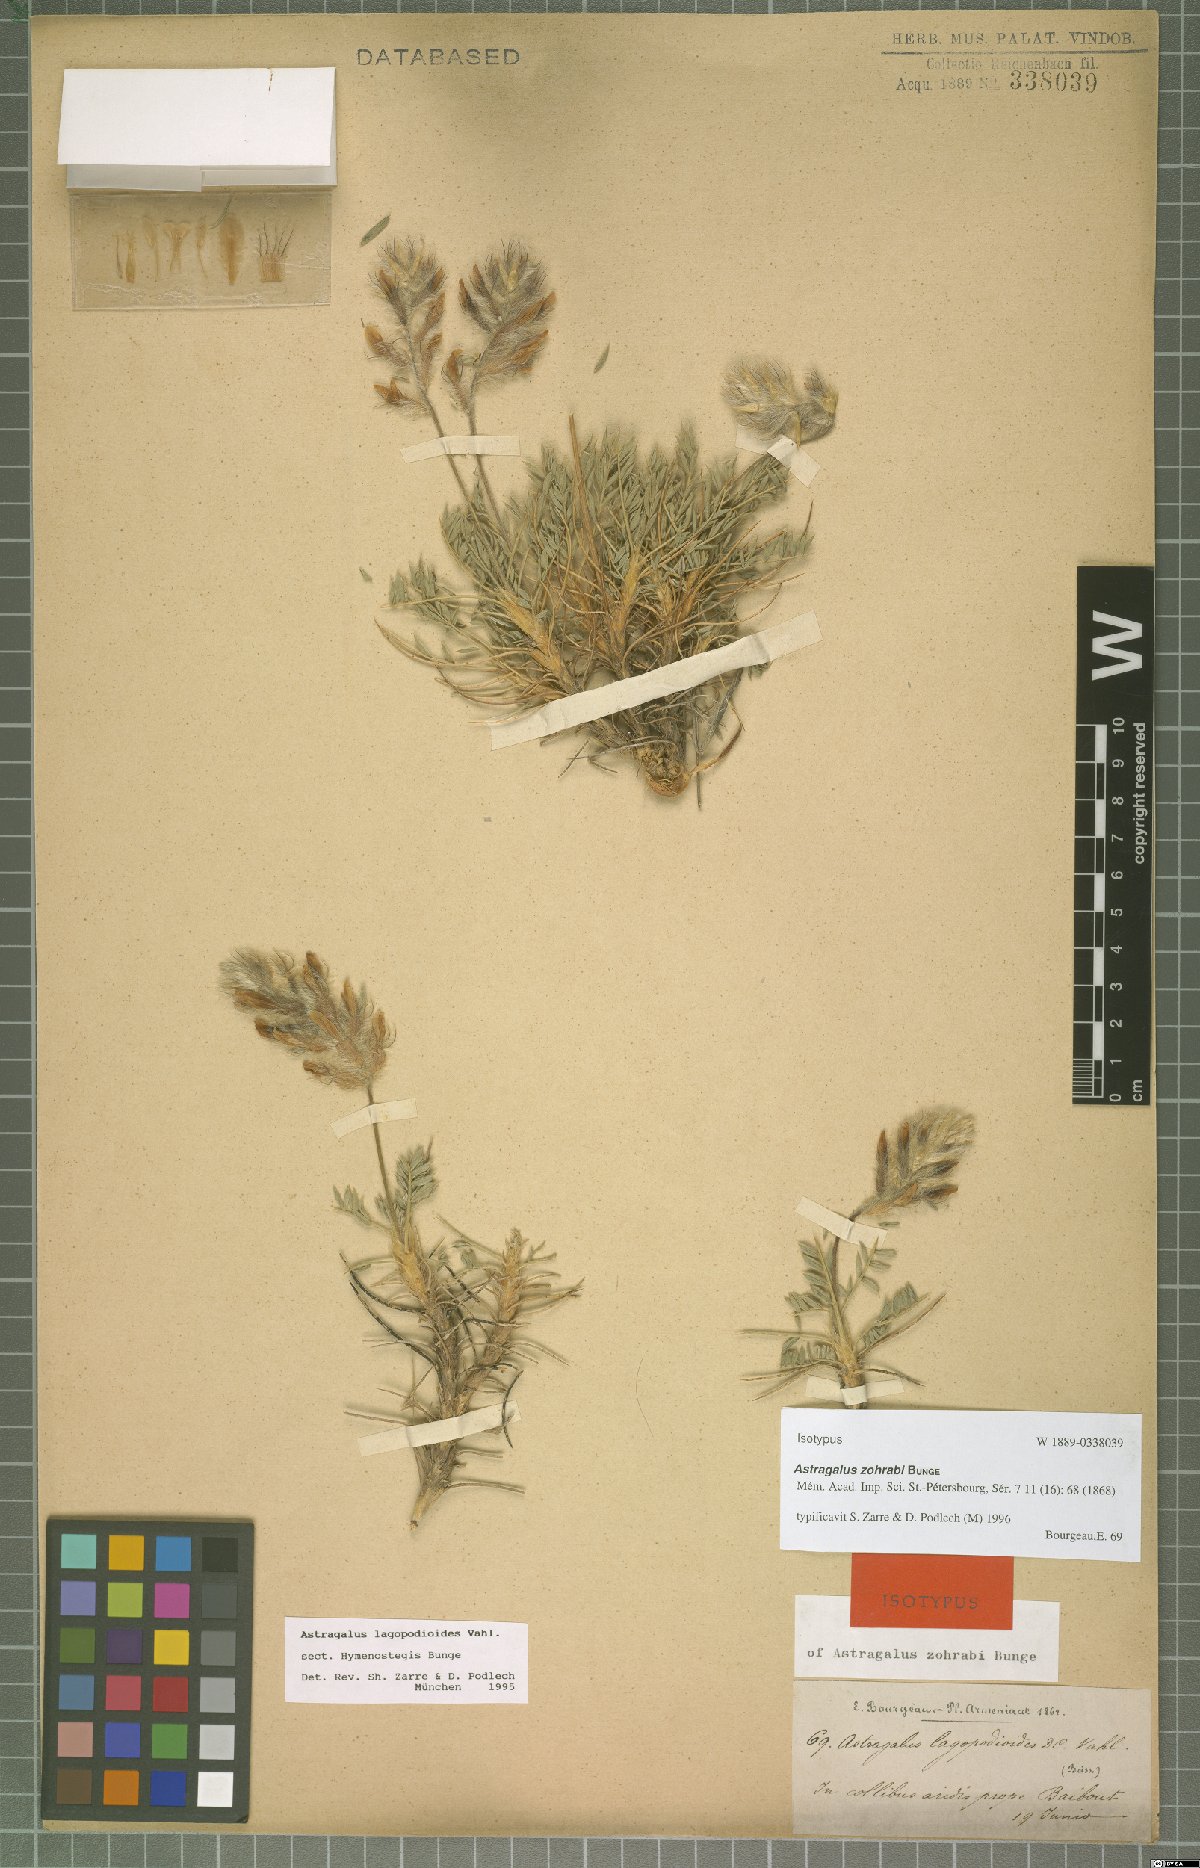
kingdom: Plantae
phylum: Tracheophyta
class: Magnoliopsida
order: Fabales
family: Fabaceae
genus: Astragalus
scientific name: Astragalus lagopodioides
